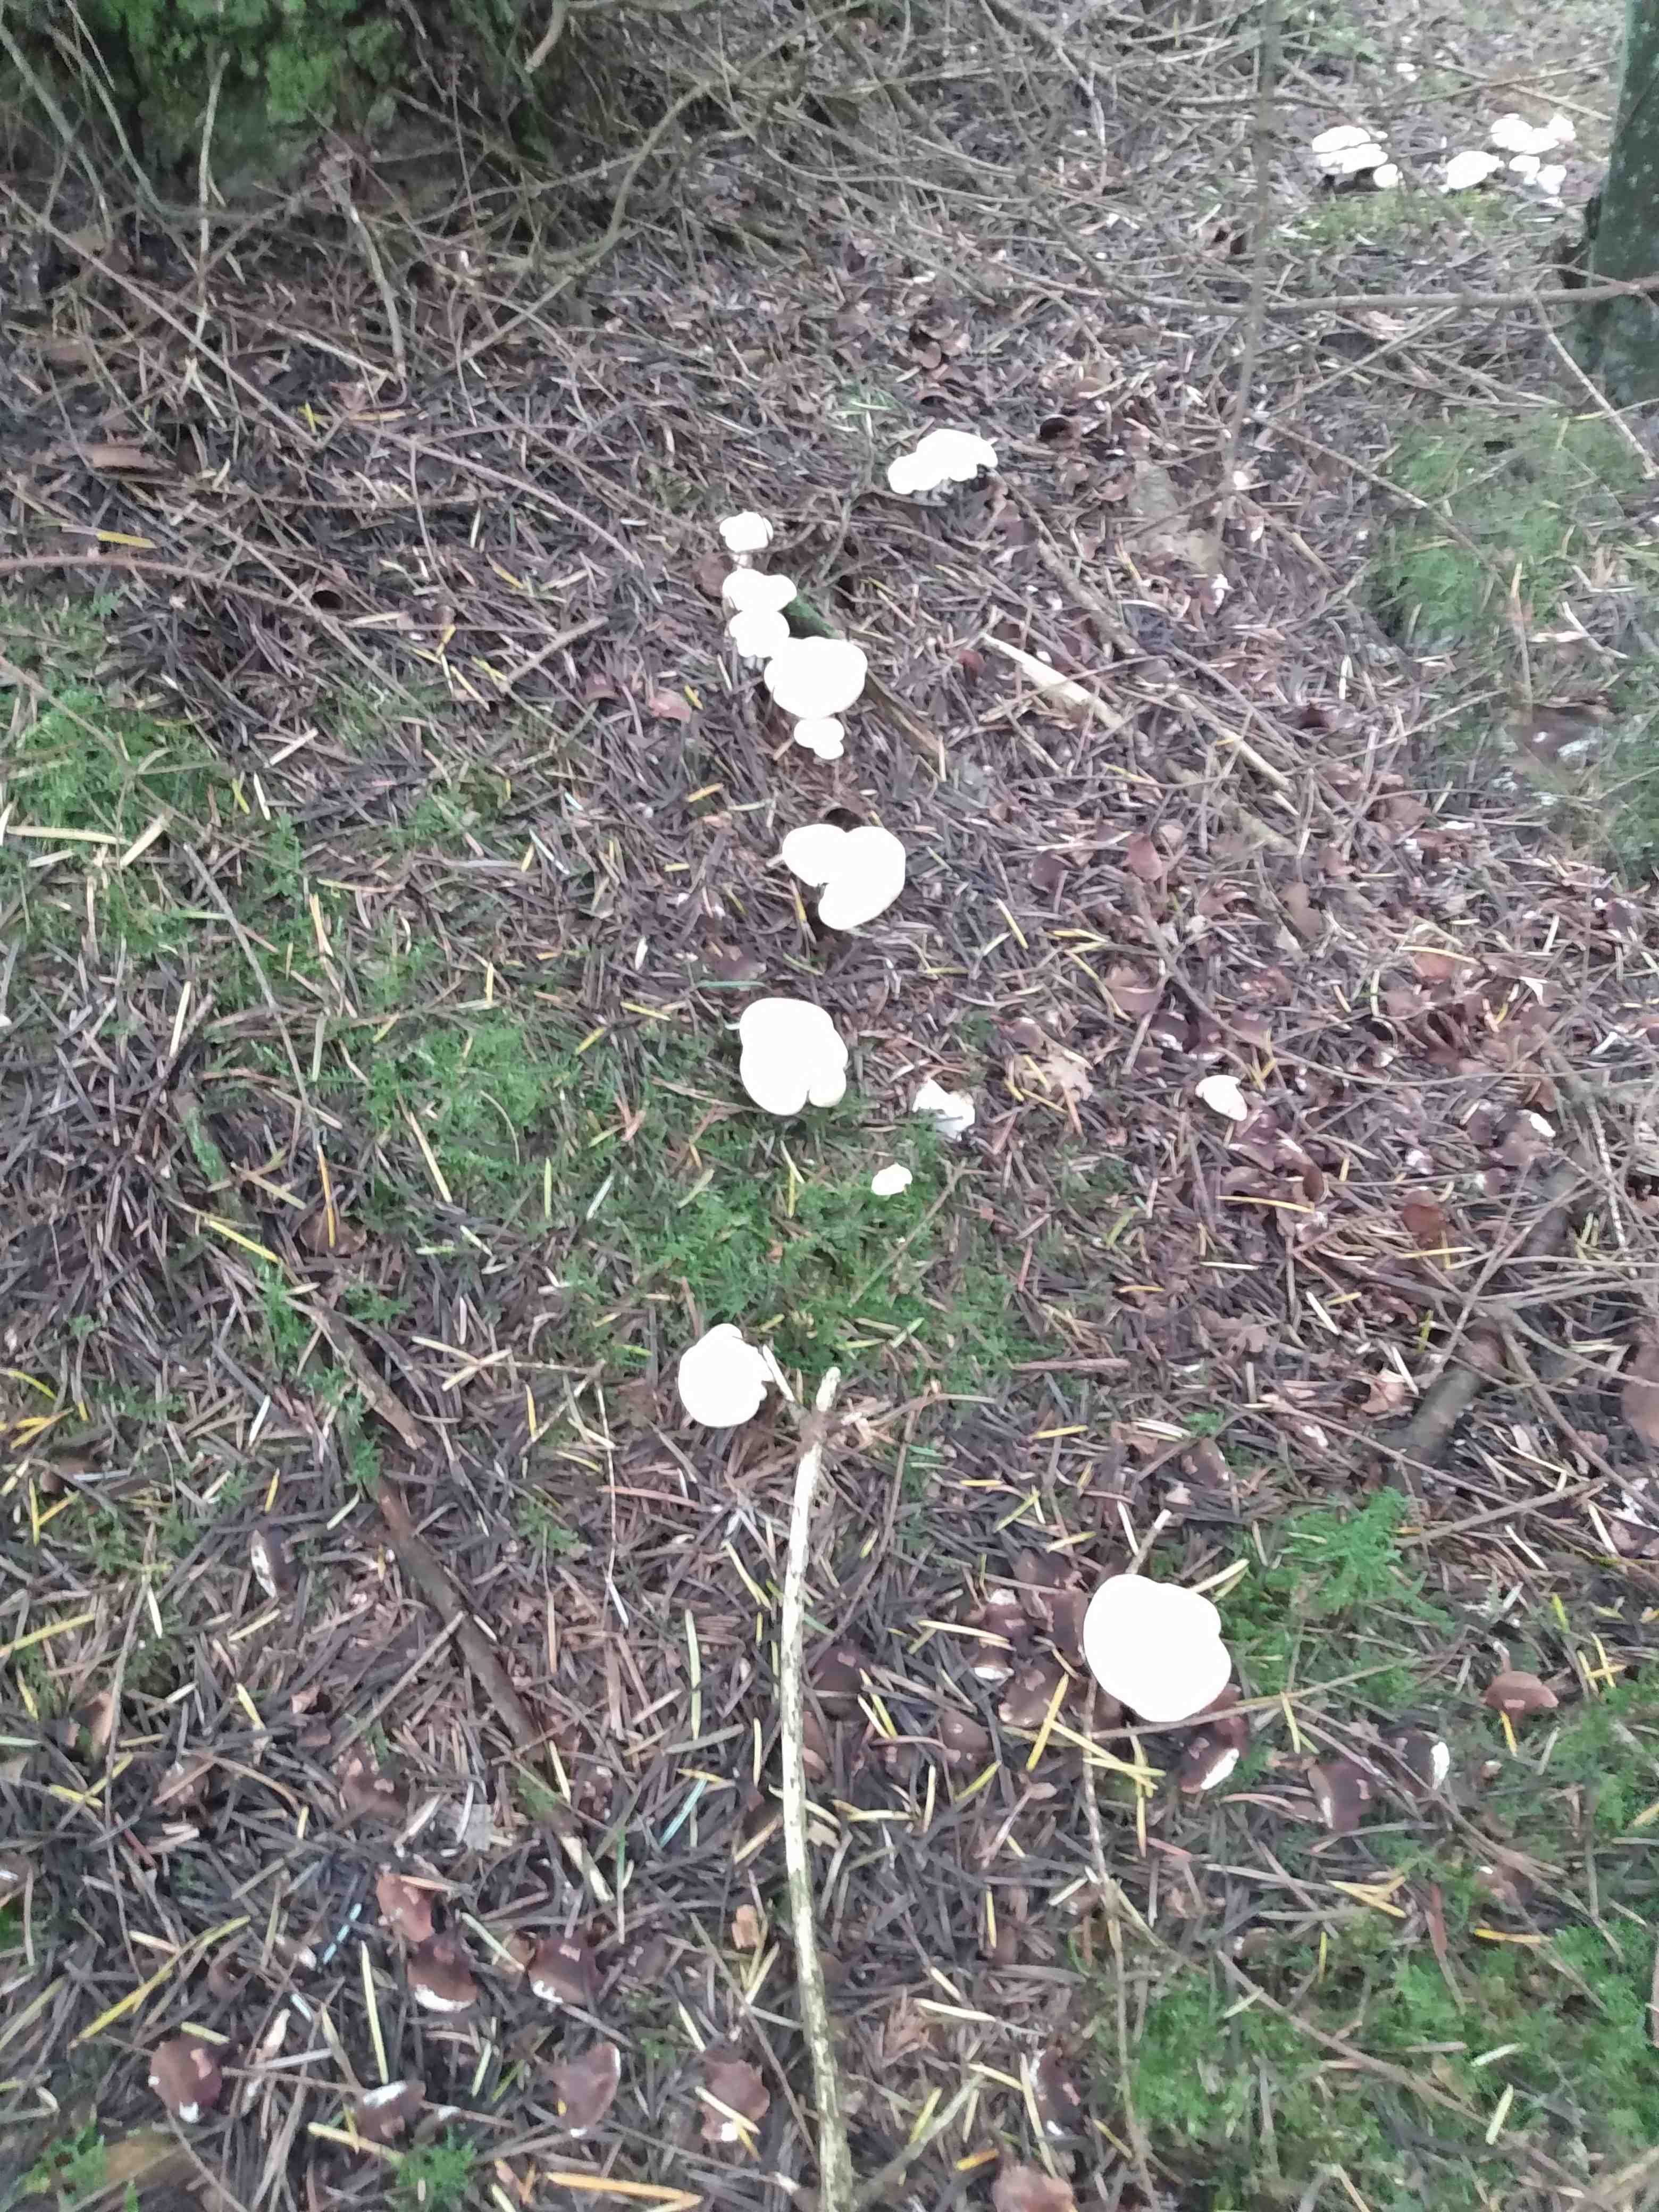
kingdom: Fungi
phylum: Basidiomycota
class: Agaricomycetes
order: Cantharellales
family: Hydnaceae
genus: Hydnum
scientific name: Hydnum repandum
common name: almindelig pigsvamp
